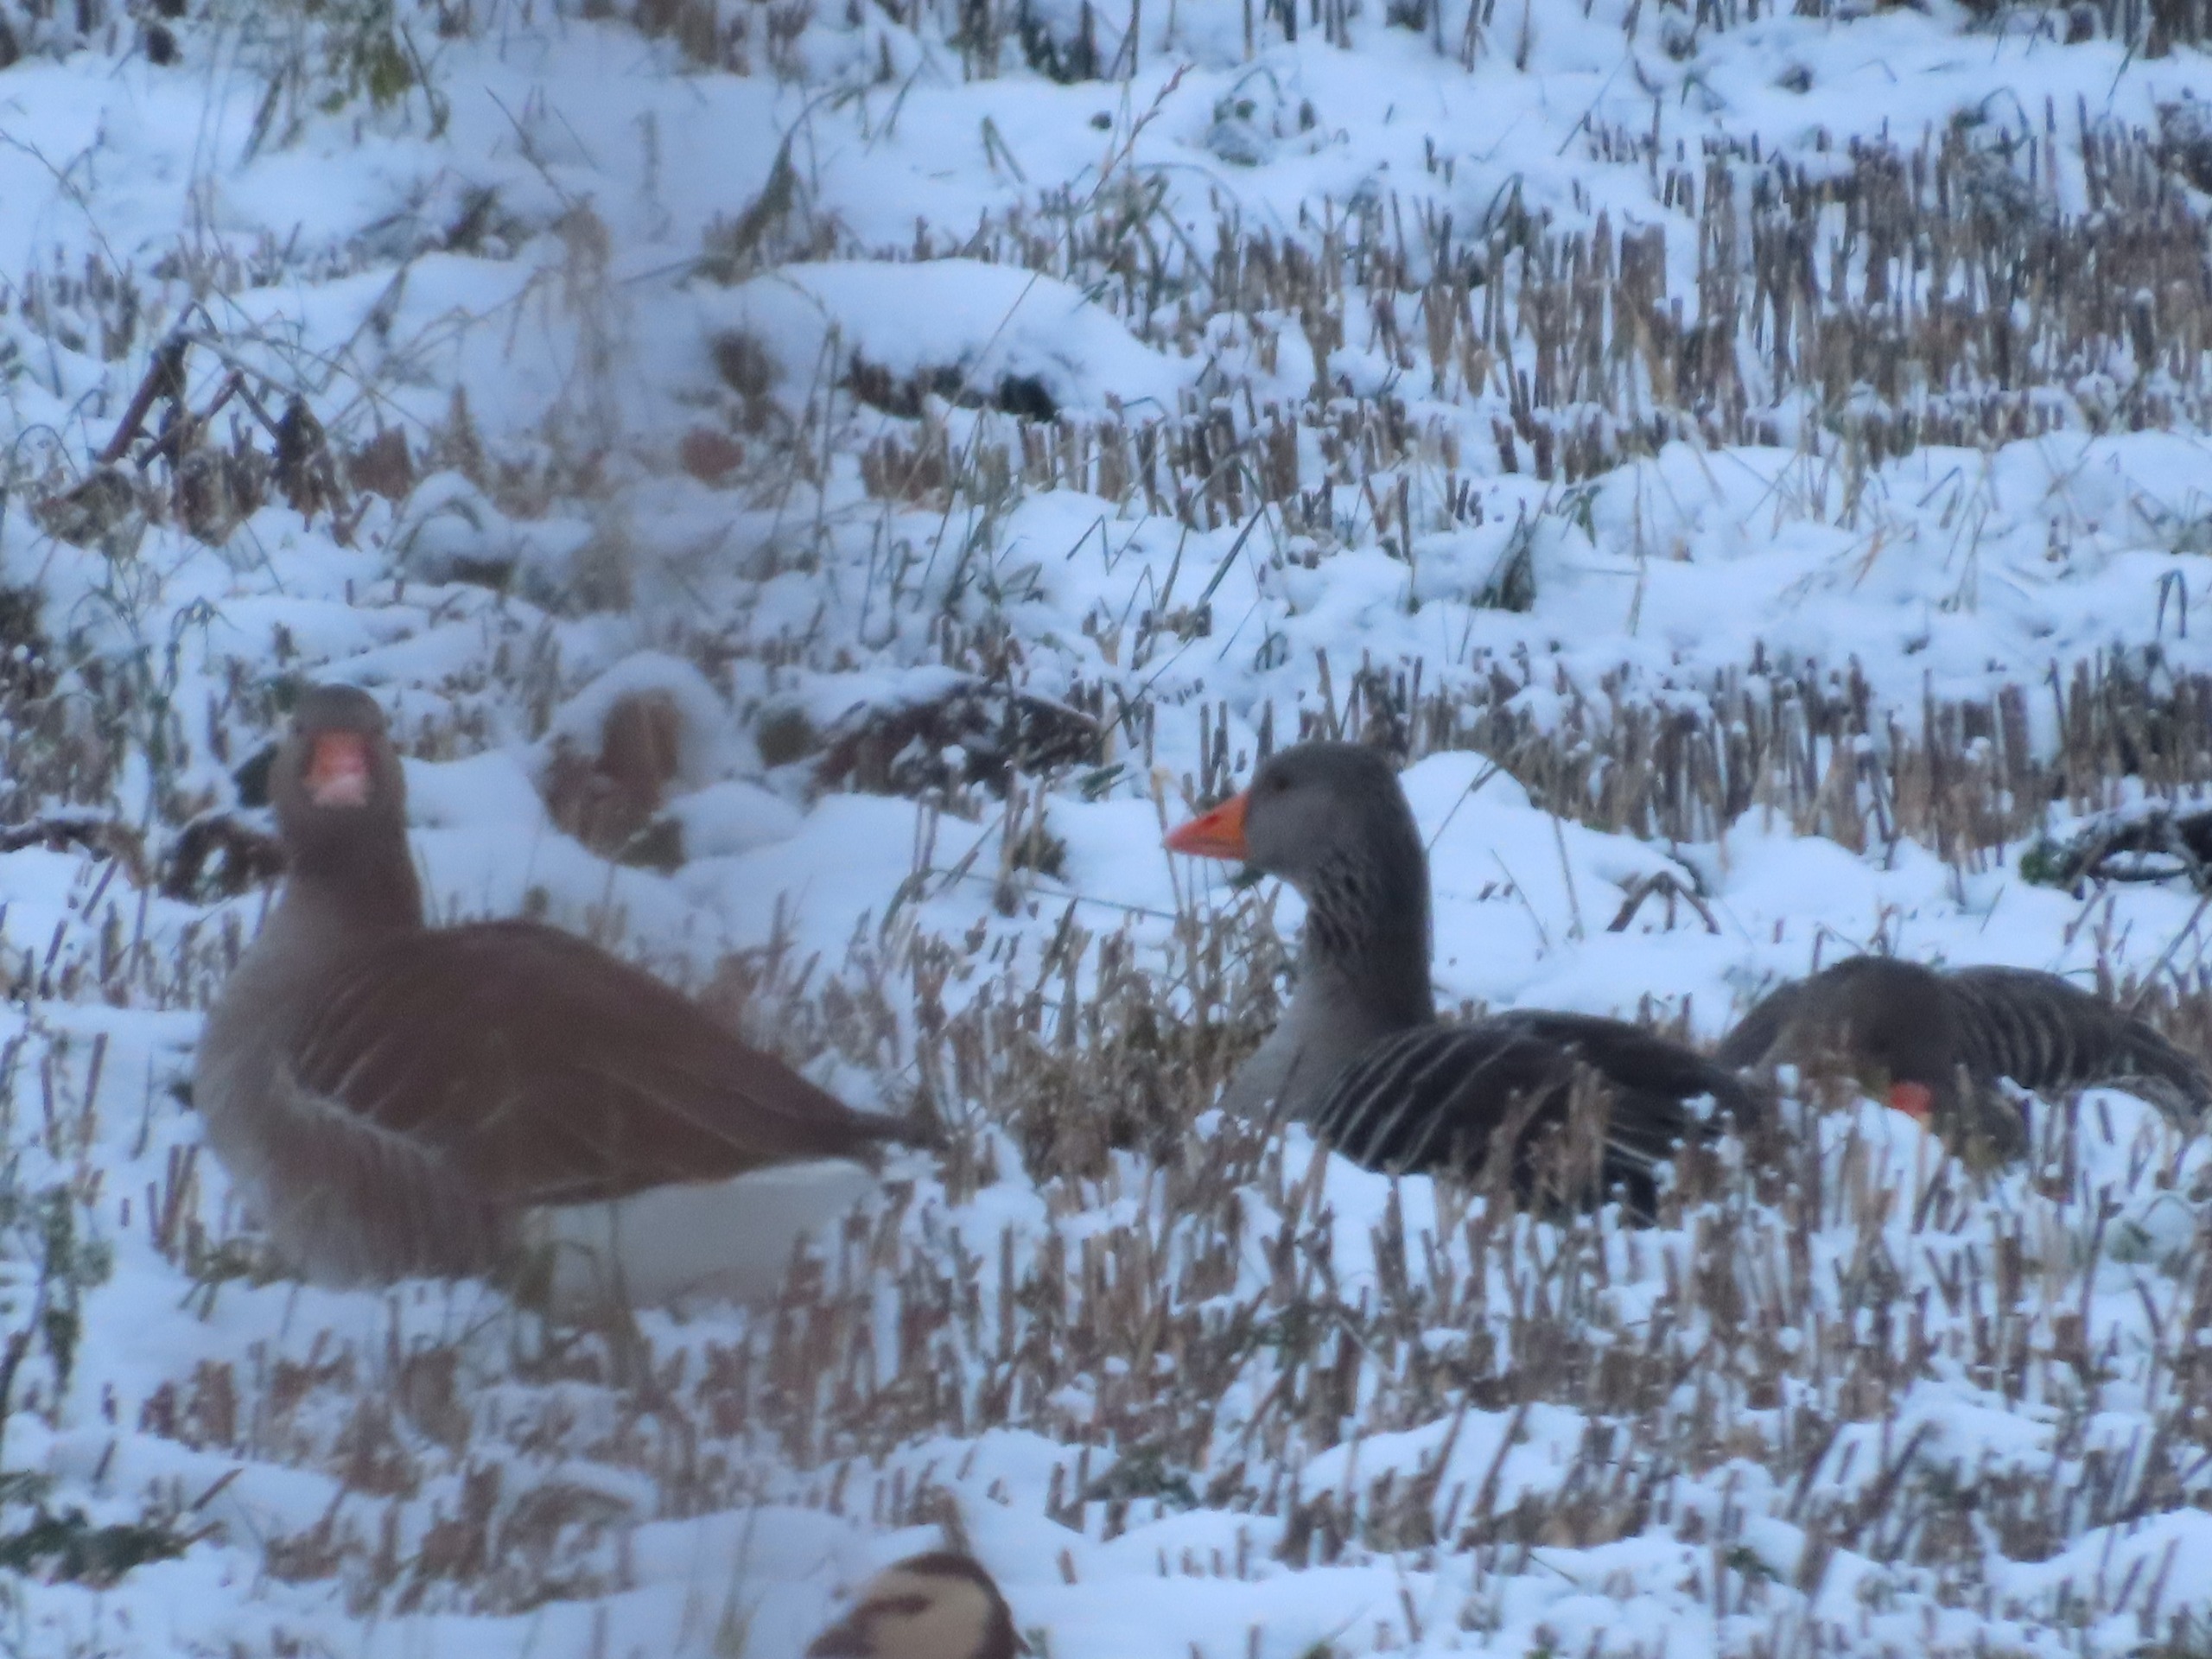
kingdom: Animalia
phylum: Chordata
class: Aves
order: Anseriformes
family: Anatidae
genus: Anser
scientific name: Anser anser
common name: Grågås
